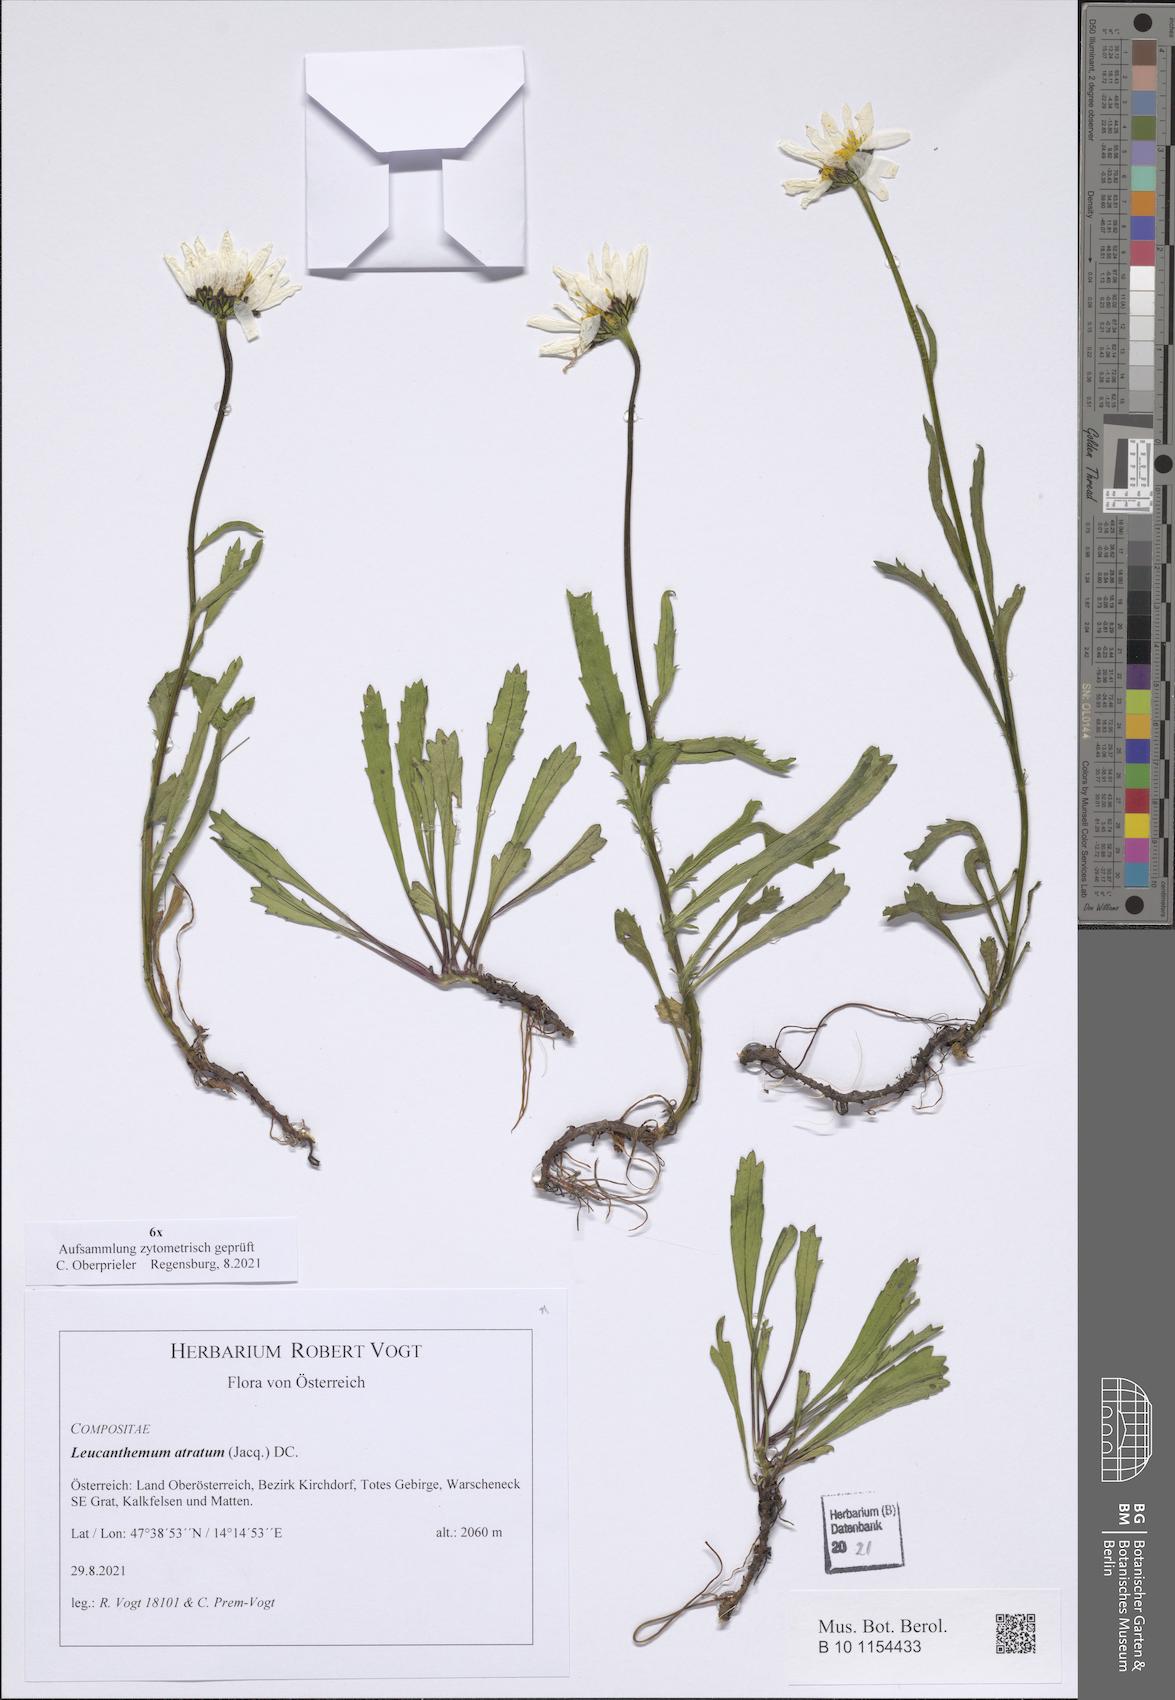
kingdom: Plantae
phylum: Tracheophyta
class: Magnoliopsida
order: Asterales
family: Asteraceae
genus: Leucanthemum
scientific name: Leucanthemum atratum
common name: Saw-leaved moon-daisy
